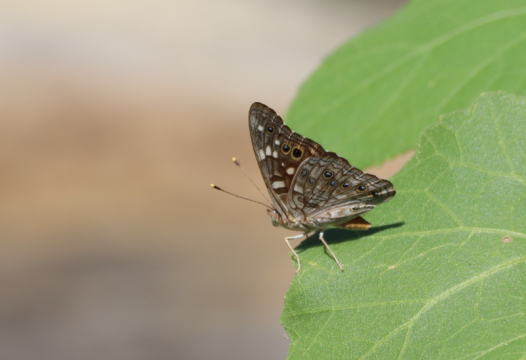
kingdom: Animalia
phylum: Arthropoda
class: Insecta
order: Lepidoptera
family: Nymphalidae
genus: Asterocampa
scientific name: Asterocampa leilia
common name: Empress Leilia
